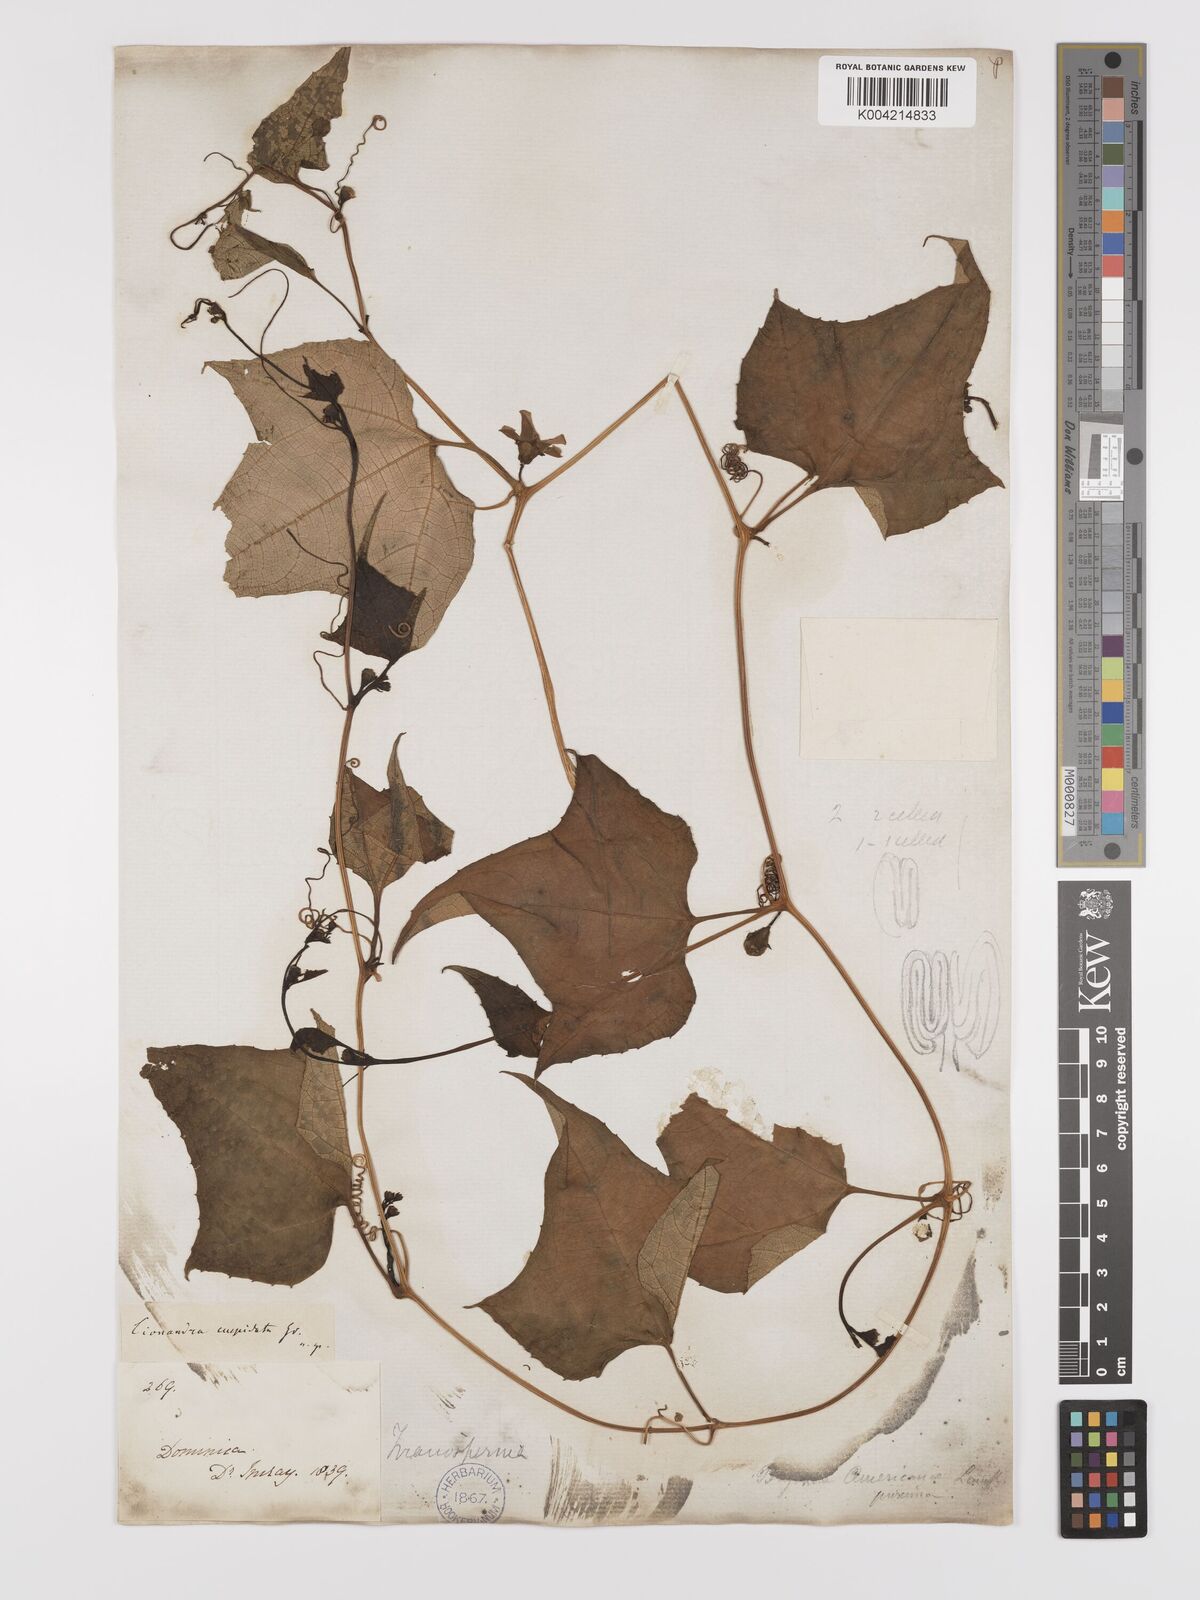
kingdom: Plantae
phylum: Tracheophyta
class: Magnoliopsida
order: Cucurbitales
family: Cucurbitaceae
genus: Cayaponia
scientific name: Cayaponia americana
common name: American melonleaf
